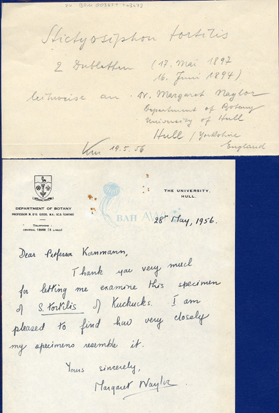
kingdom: Chromista
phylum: Ochrophyta
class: Phaeophyceae
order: Ectocarpales
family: Chordariaceae
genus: Stictyosiphon
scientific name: Stictyosiphon tortilis
